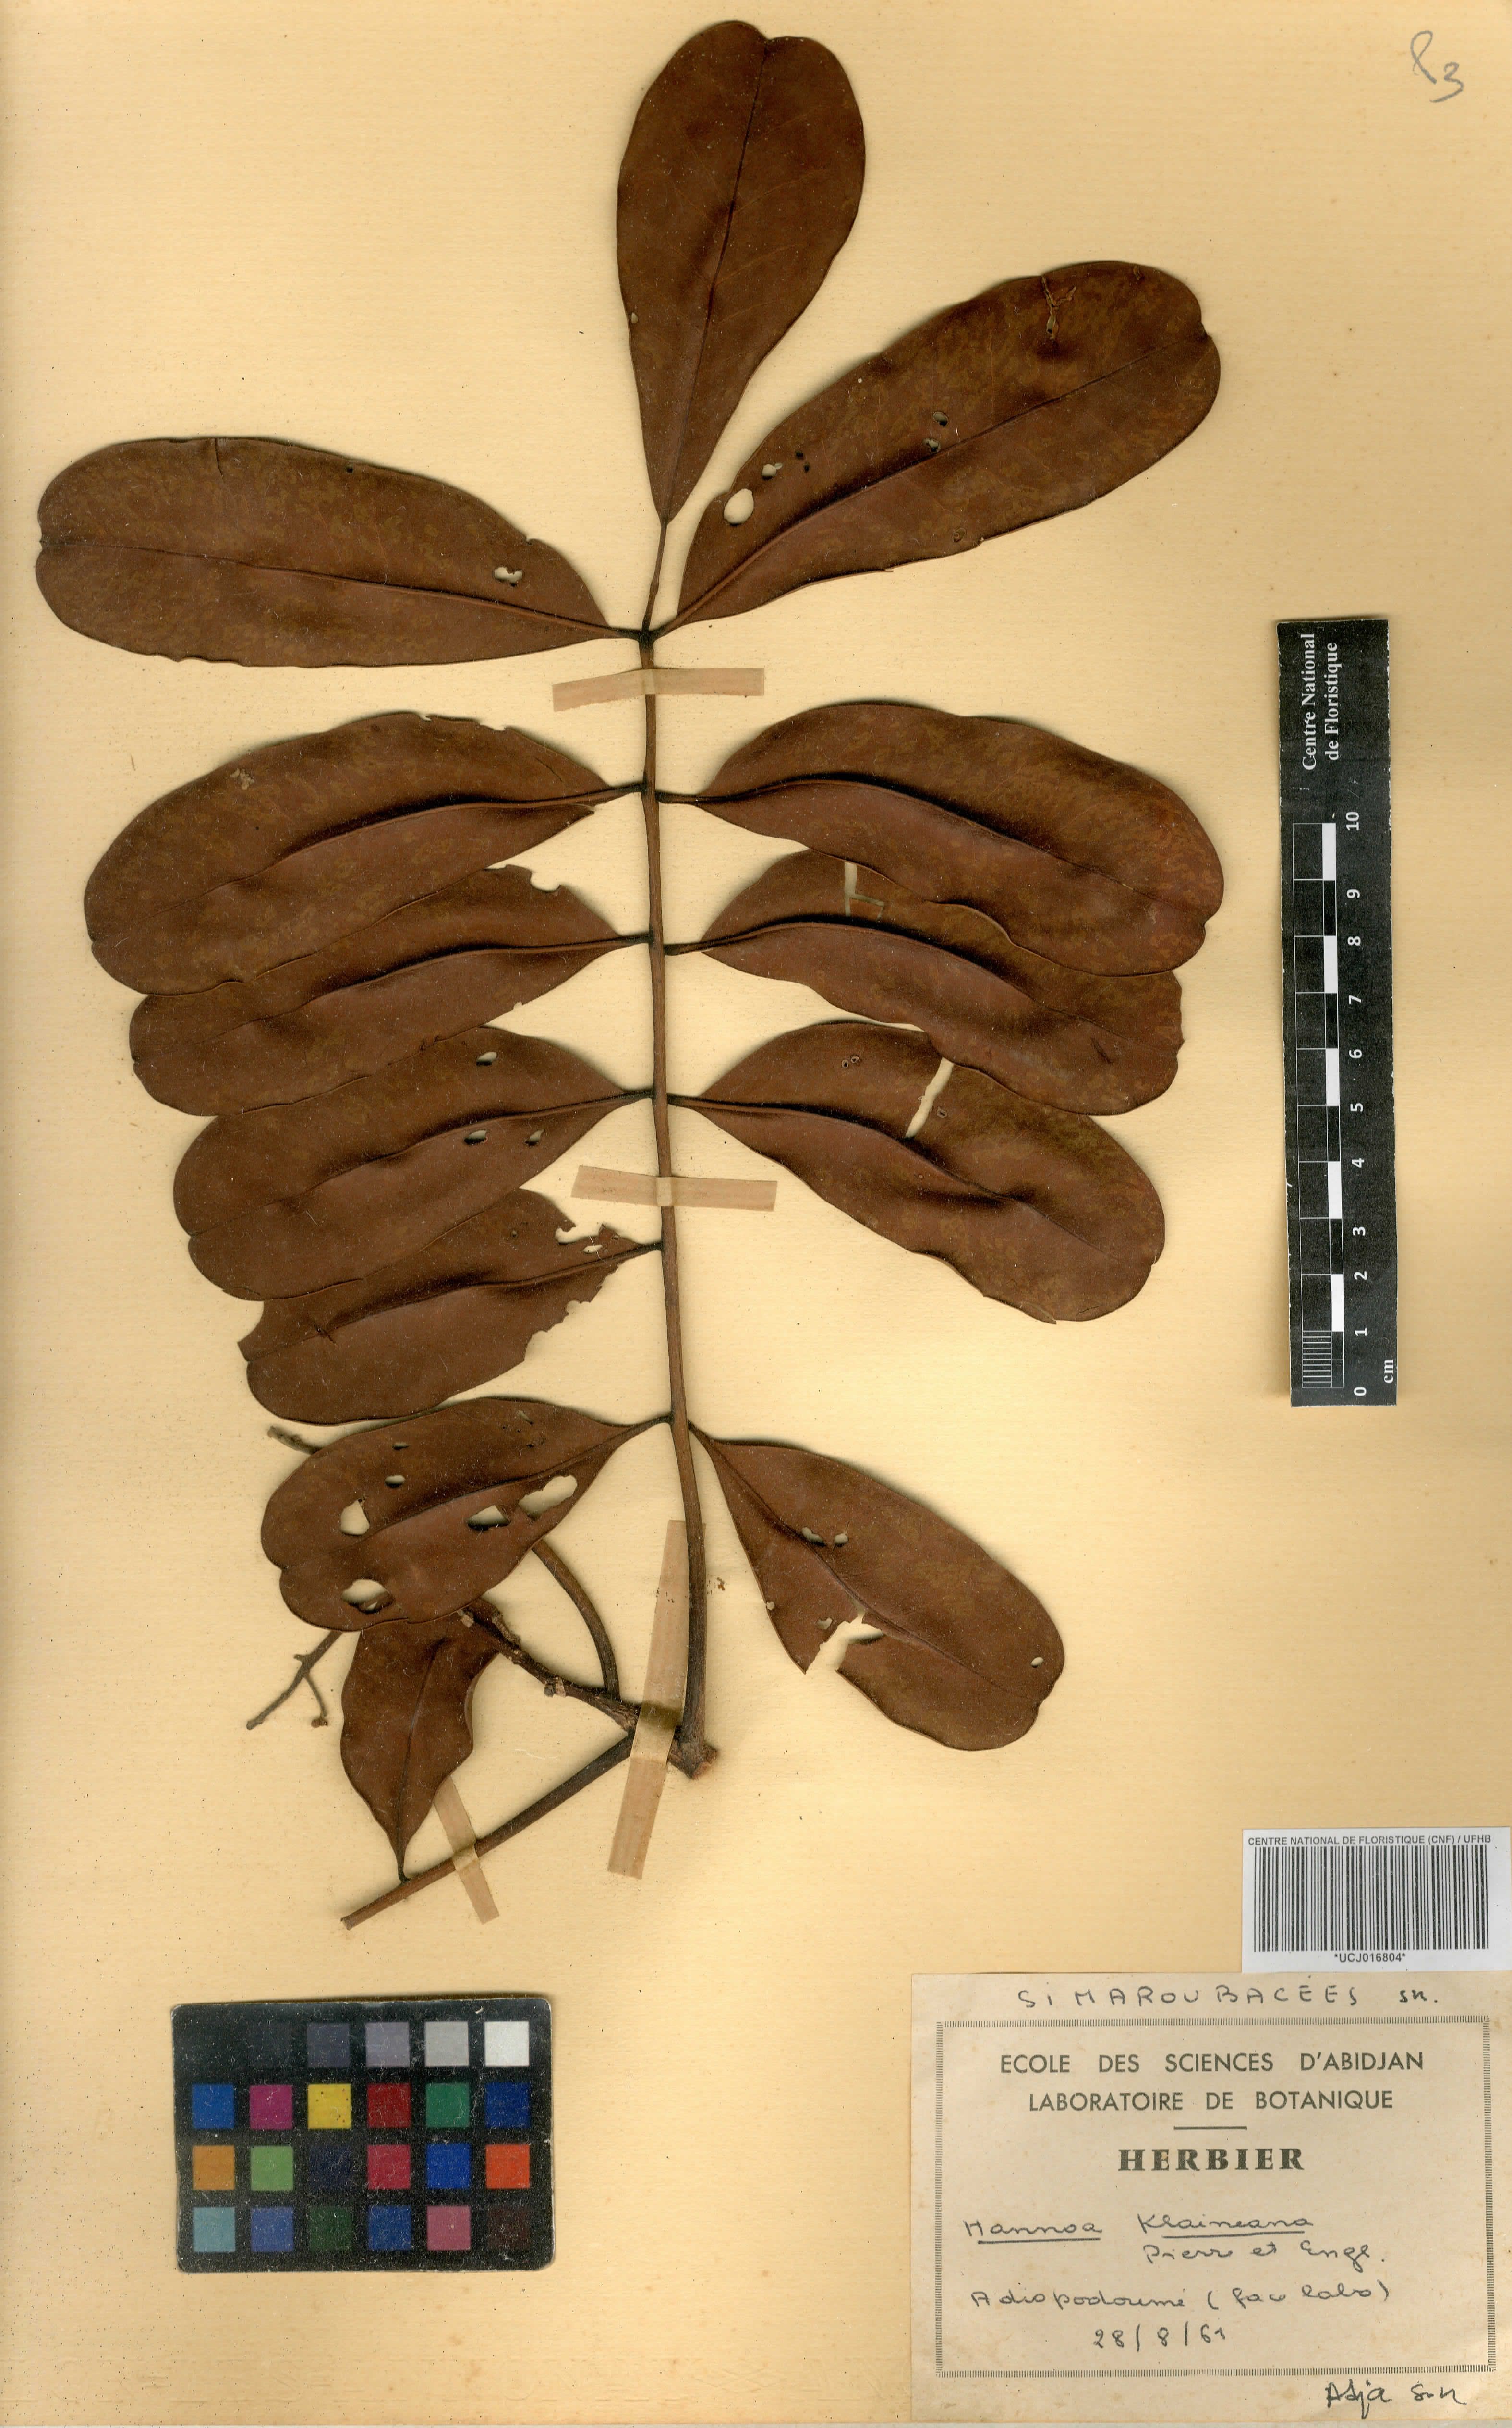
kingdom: Plantae
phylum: Tracheophyta
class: Magnoliopsida
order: Sapindales
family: Simaroubaceae
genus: Hannoa
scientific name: Hannoa
